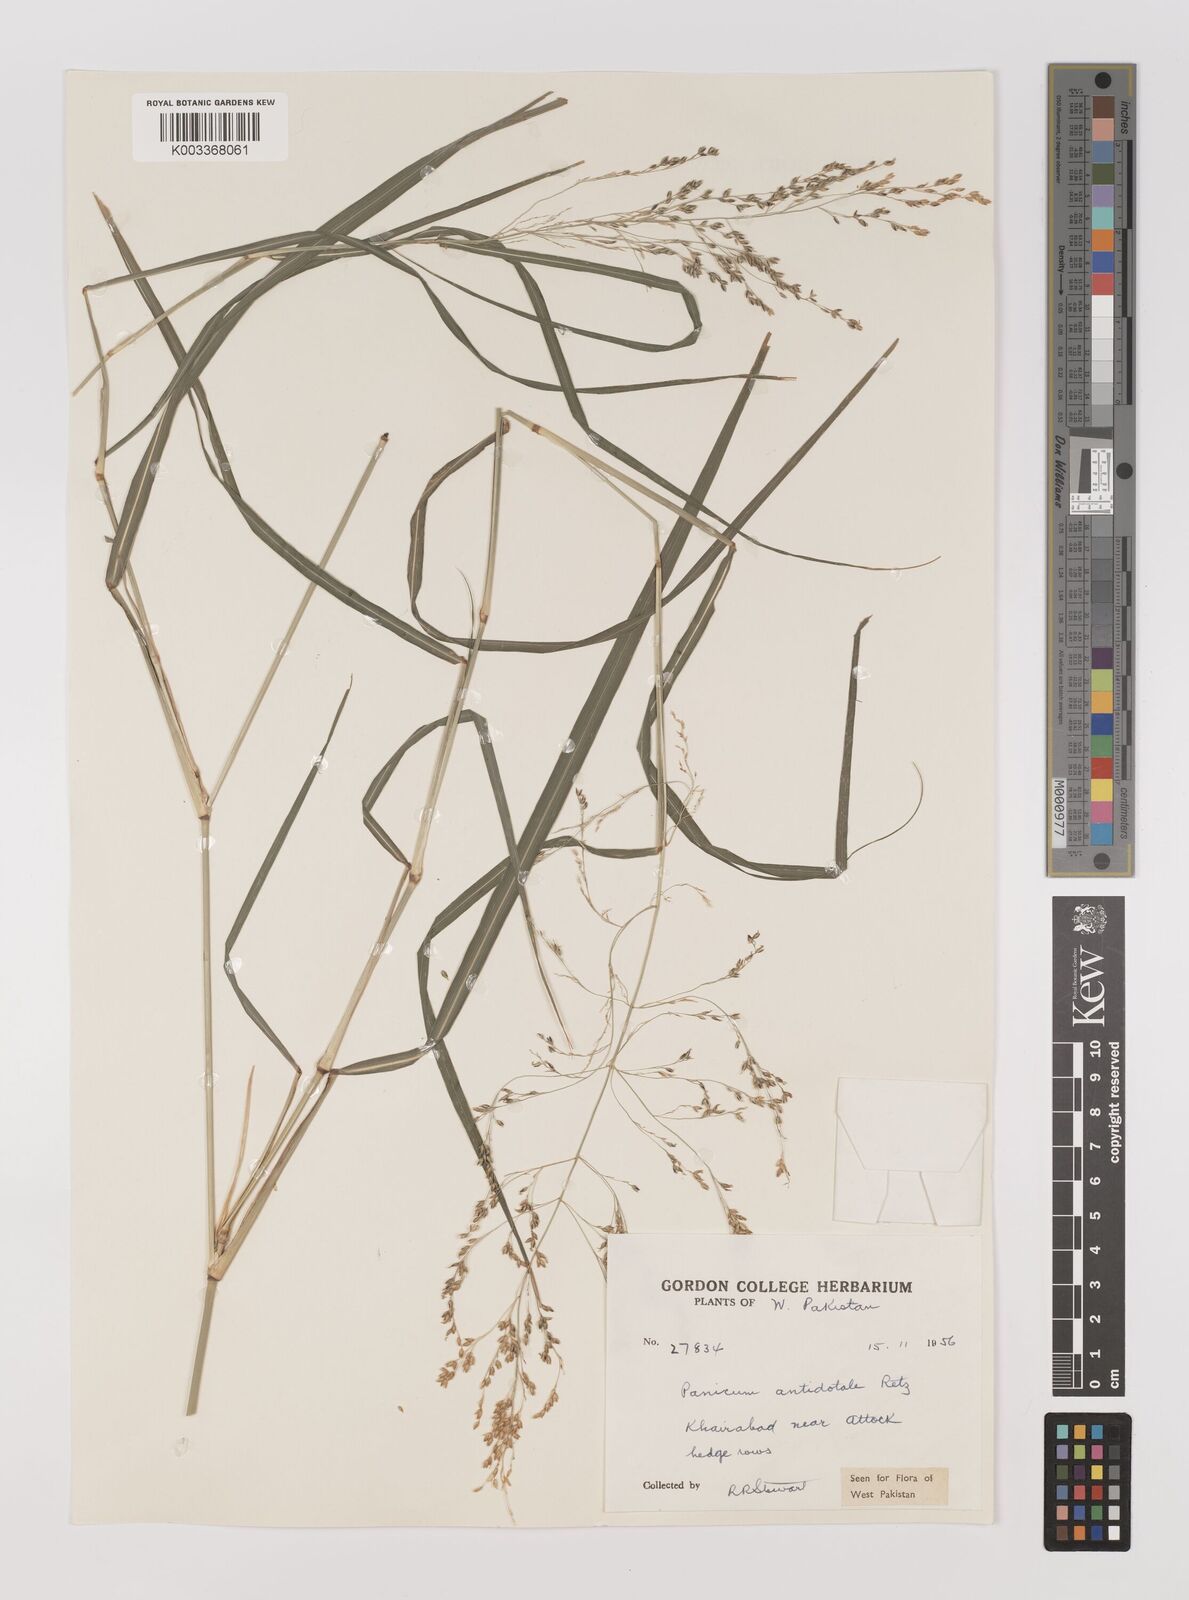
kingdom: Plantae
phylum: Tracheophyta
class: Liliopsida
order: Poales
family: Poaceae
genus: Panicum
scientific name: Panicum antidotale
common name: Blue panicum
